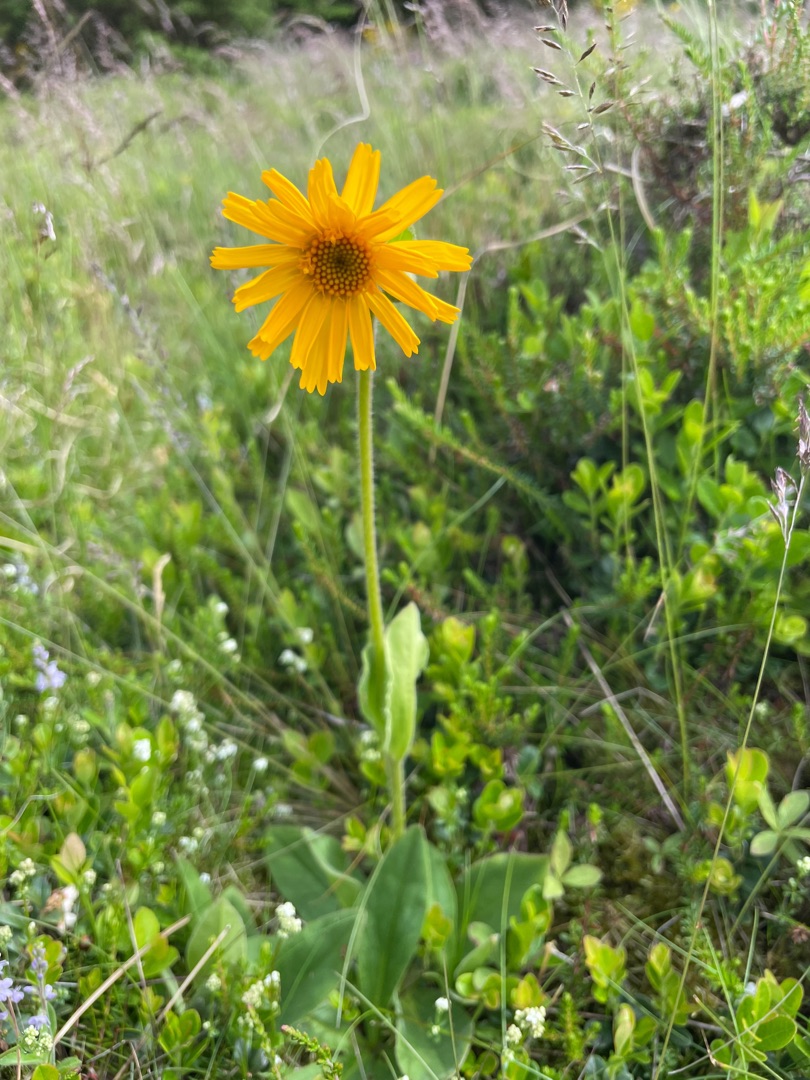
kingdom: Plantae
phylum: Tracheophyta
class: Magnoliopsida
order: Asterales
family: Asteraceae
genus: Arnica
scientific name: Arnica montana
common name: Guldblomme
